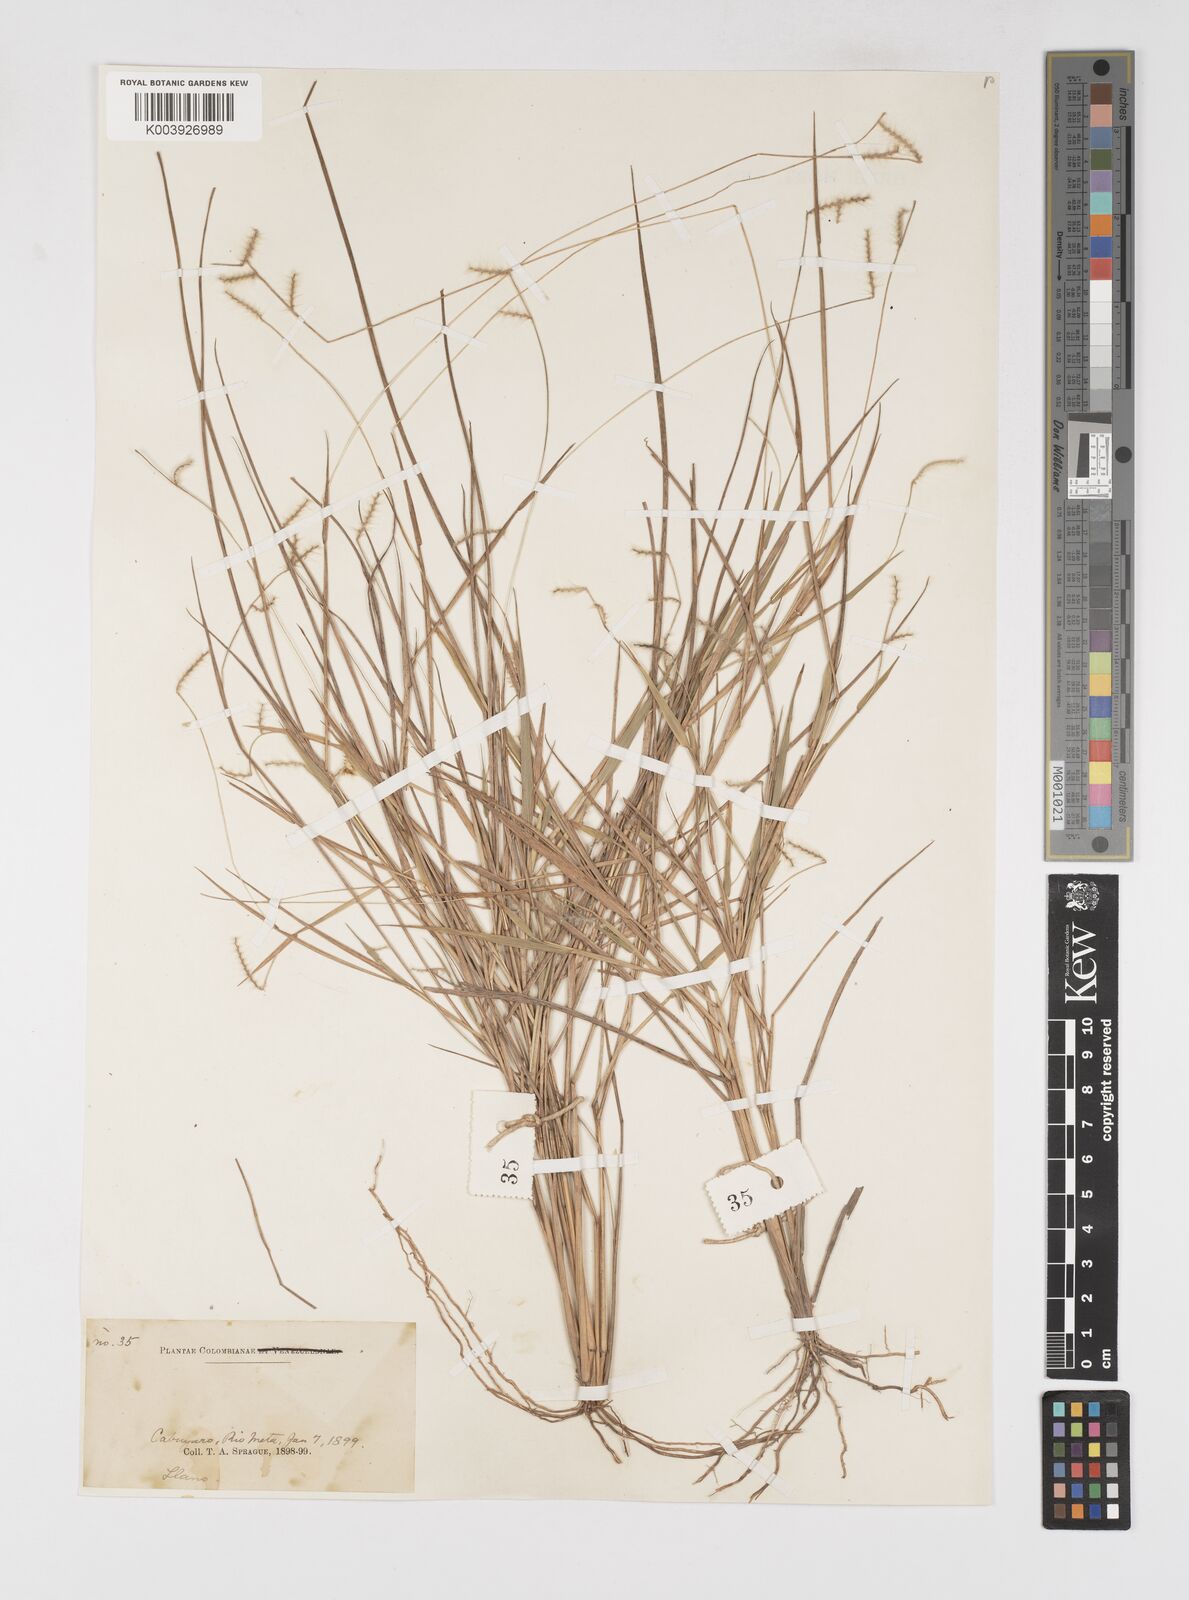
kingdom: Plantae
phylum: Tracheophyta
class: Liliopsida
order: Poales
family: Poaceae
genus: Eriochloa
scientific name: Eriochloa distachya
